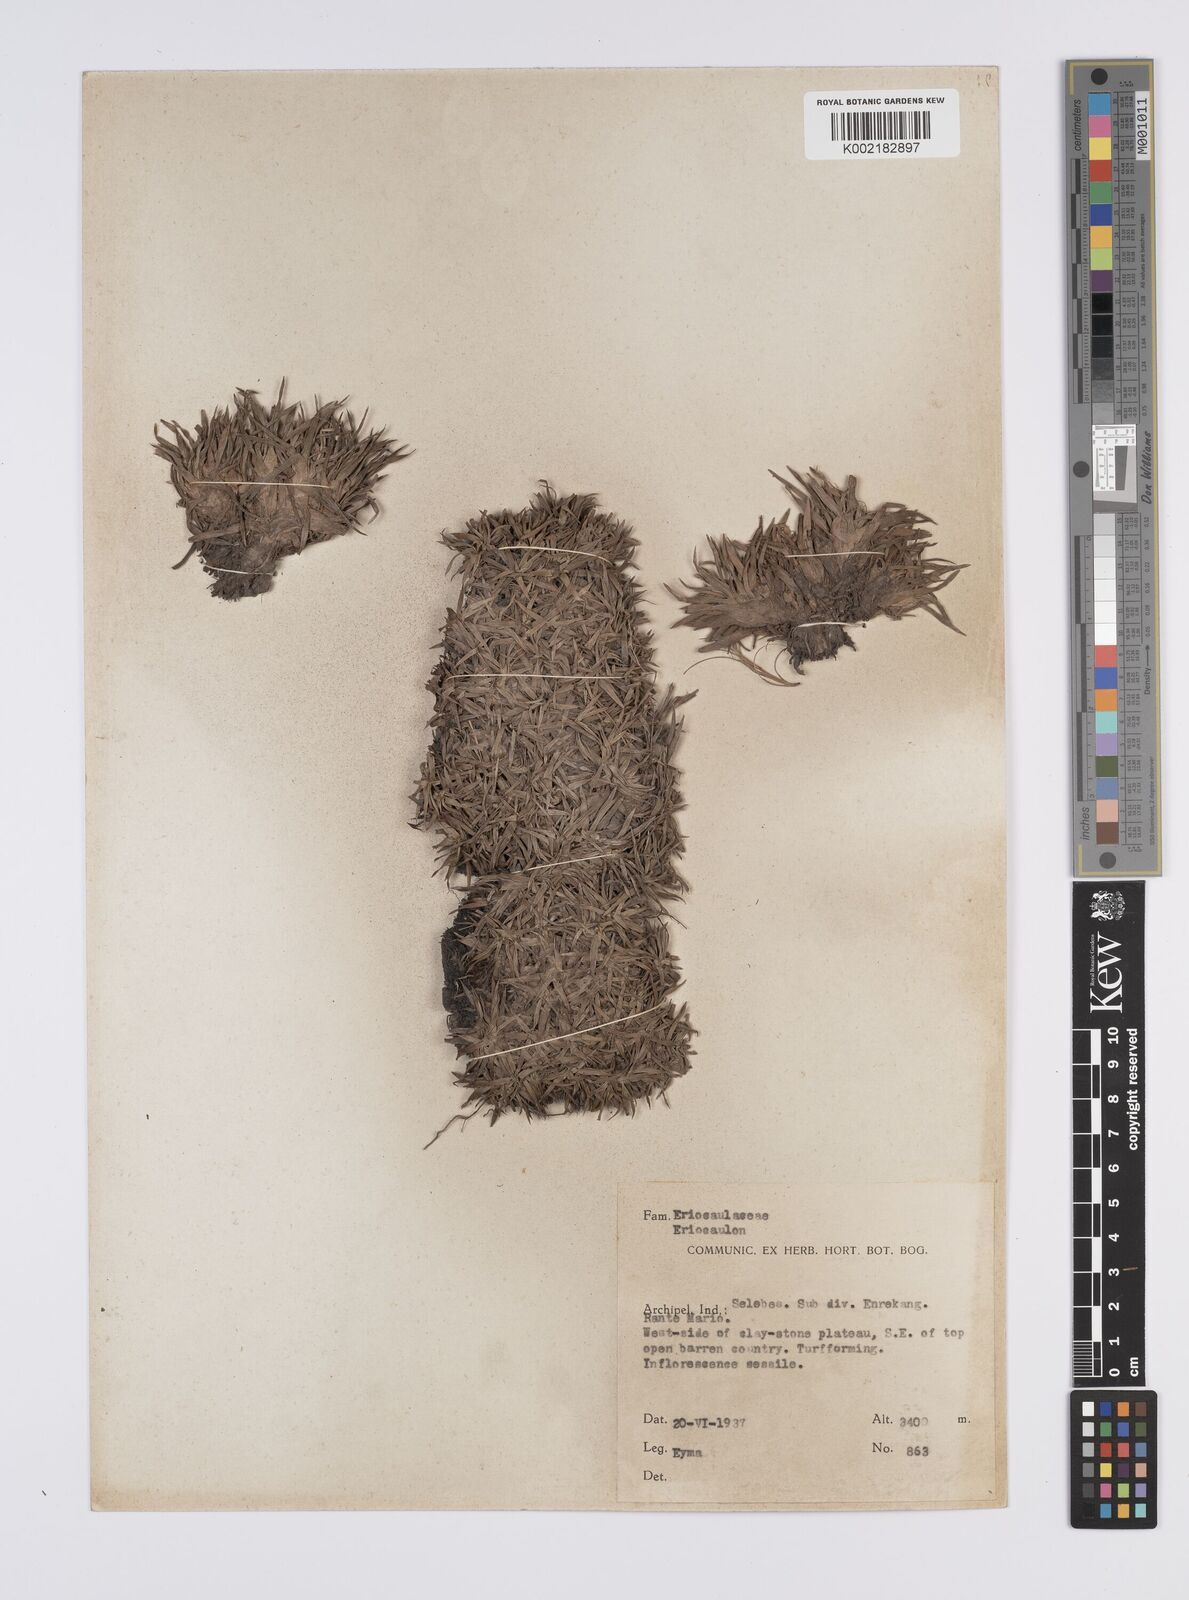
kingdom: Plantae
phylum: Tracheophyta
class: Liliopsida
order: Poales
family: Eriocaulaceae
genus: Eriocaulon
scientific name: Eriocaulon
